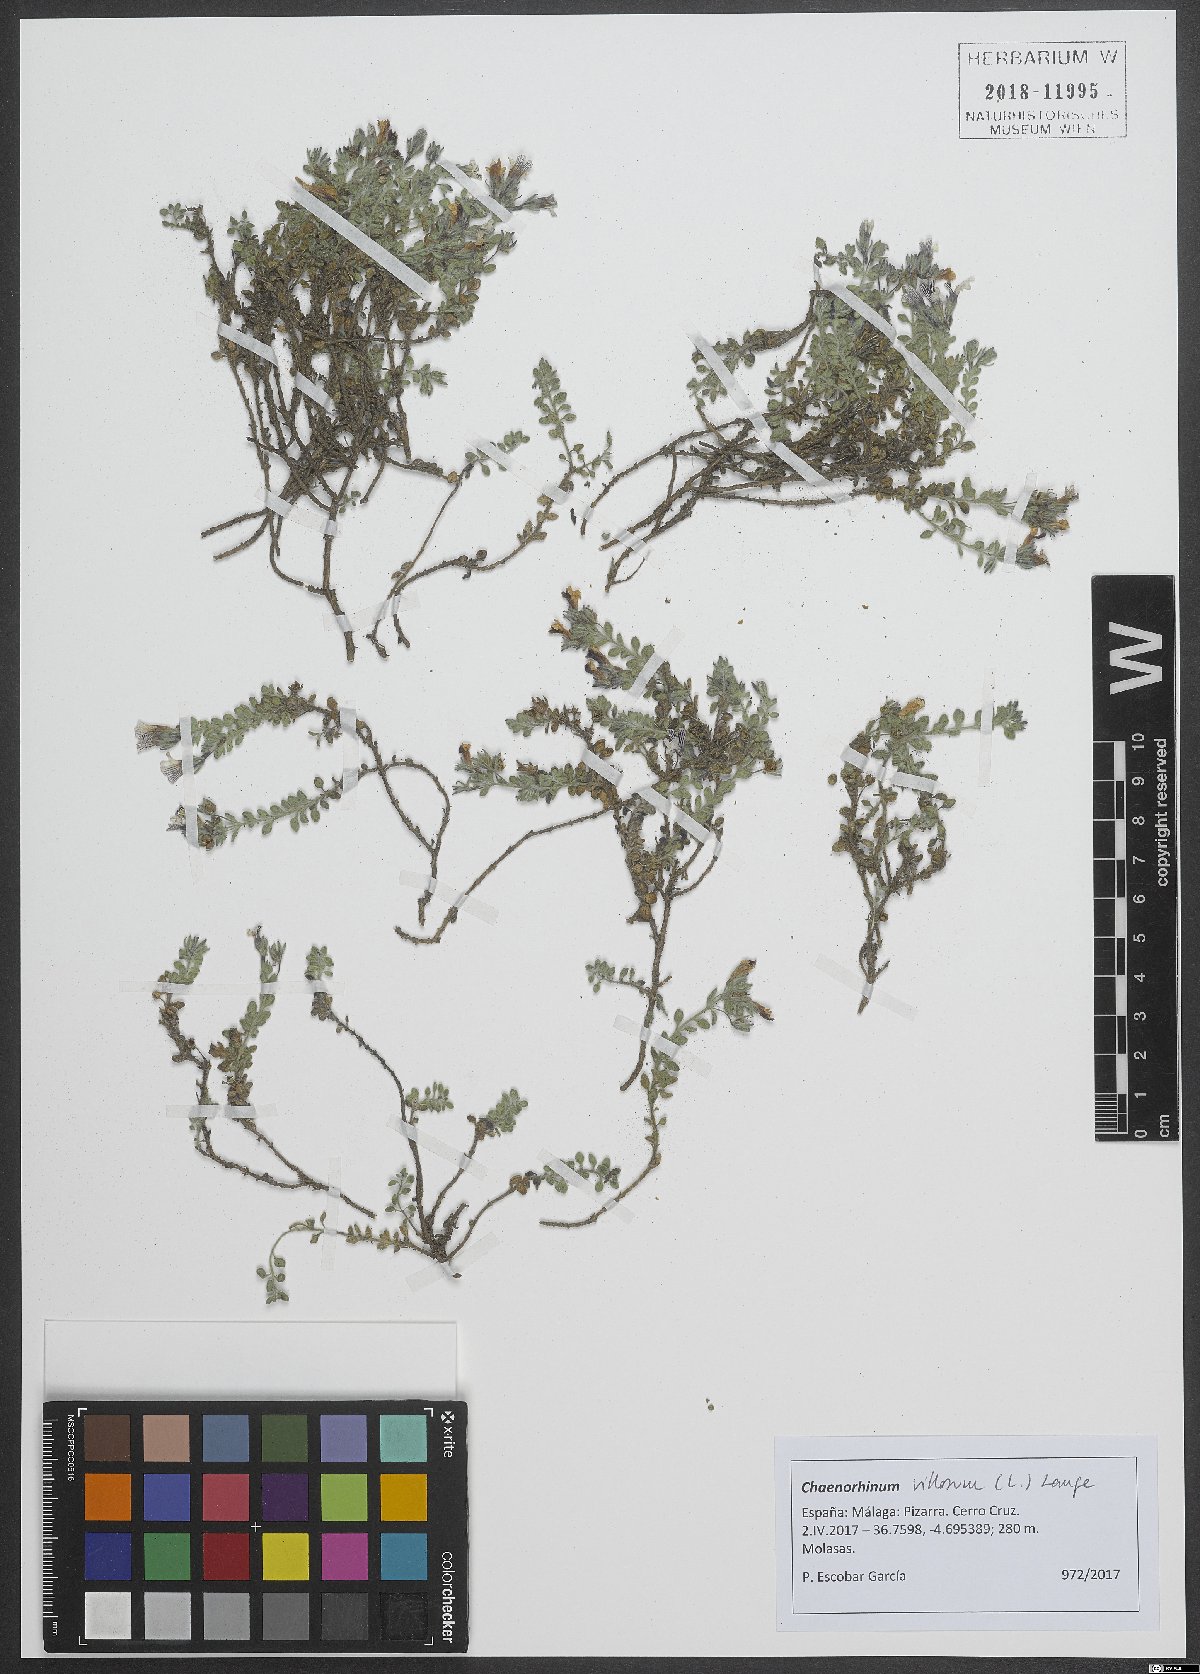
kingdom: Plantae
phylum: Tracheophyta
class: Magnoliopsida
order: Lamiales
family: Plantaginaceae
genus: Chaenorhinum
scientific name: Chaenorhinum villosum
